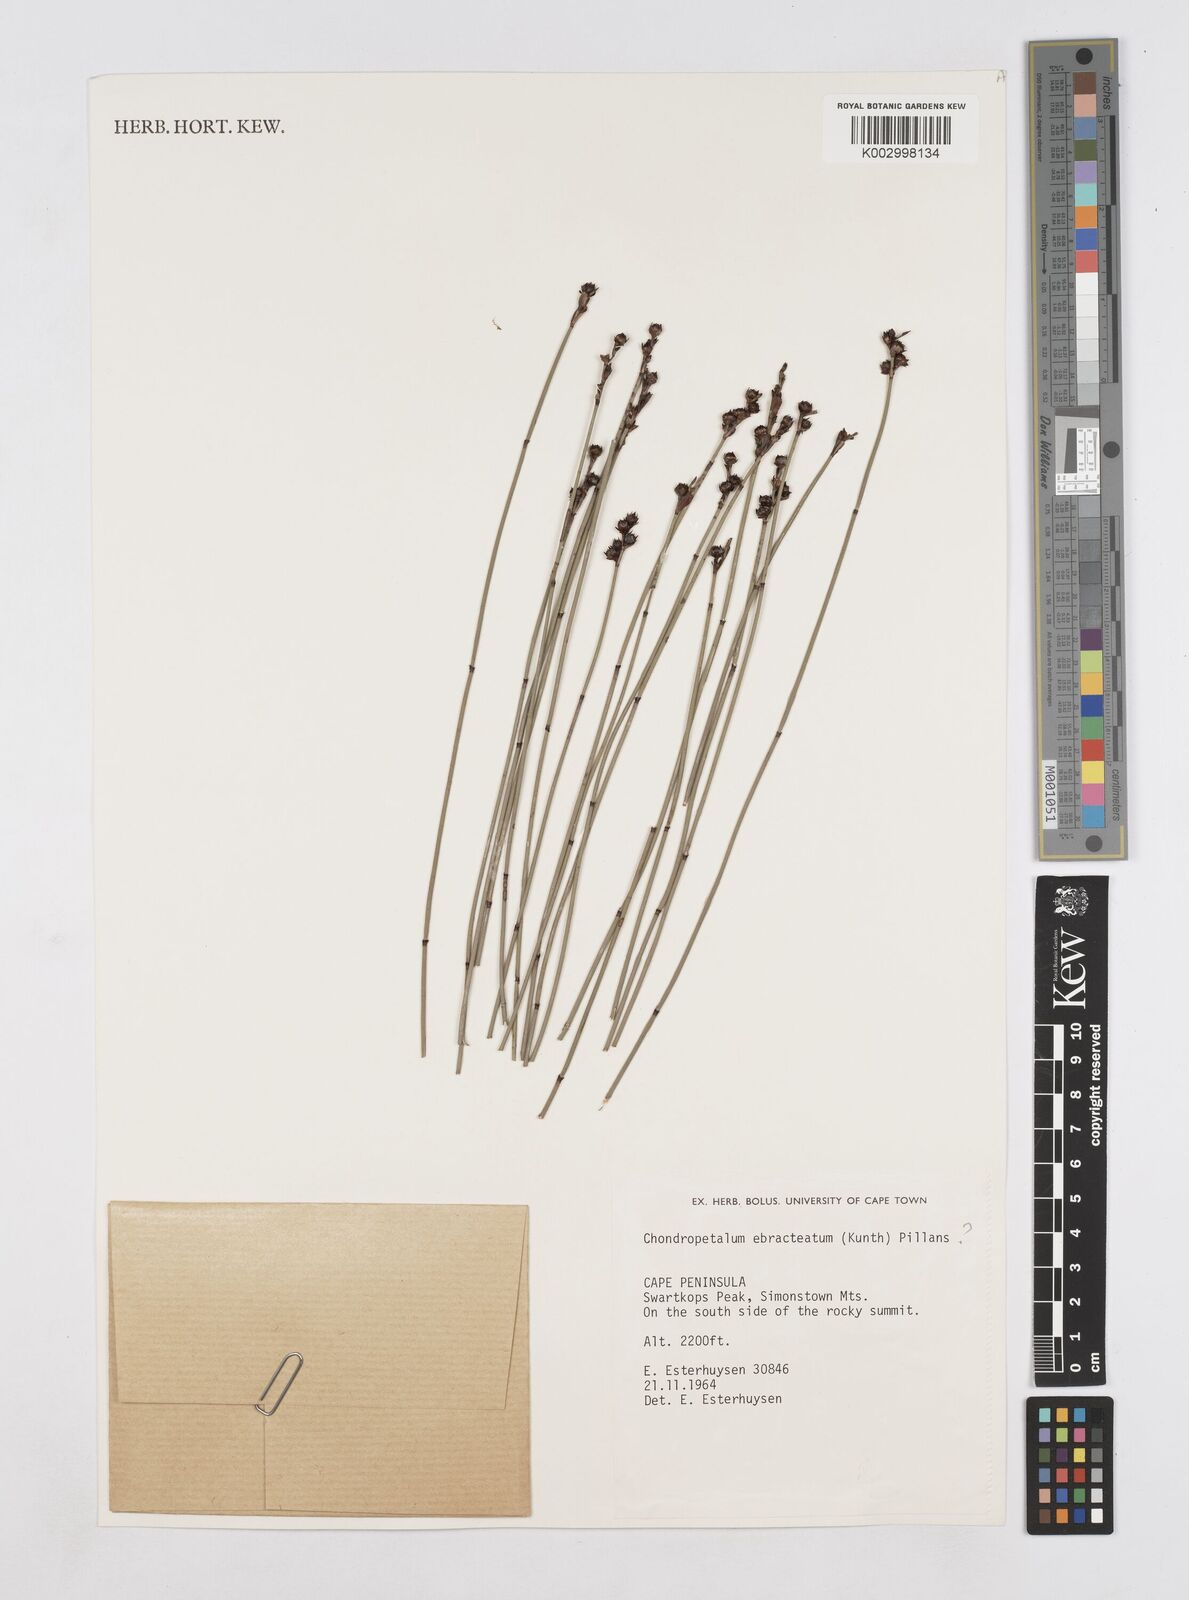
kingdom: Plantae
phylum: Tracheophyta
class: Liliopsida
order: Poales
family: Restionaceae
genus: Elegia
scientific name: Elegia ebracteata
